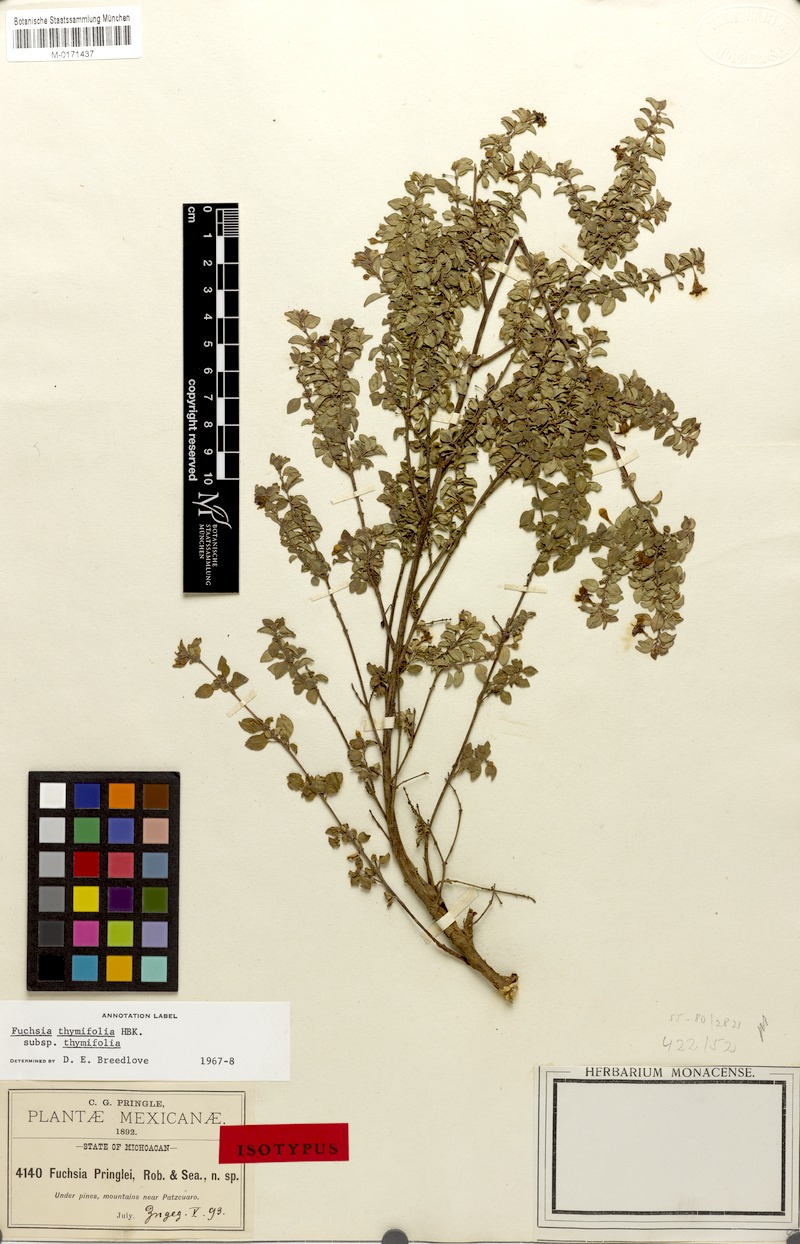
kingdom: Plantae
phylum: Tracheophyta
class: Magnoliopsida
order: Myrtales
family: Onagraceae
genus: Fuchsia
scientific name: Fuchsia thymifolia
